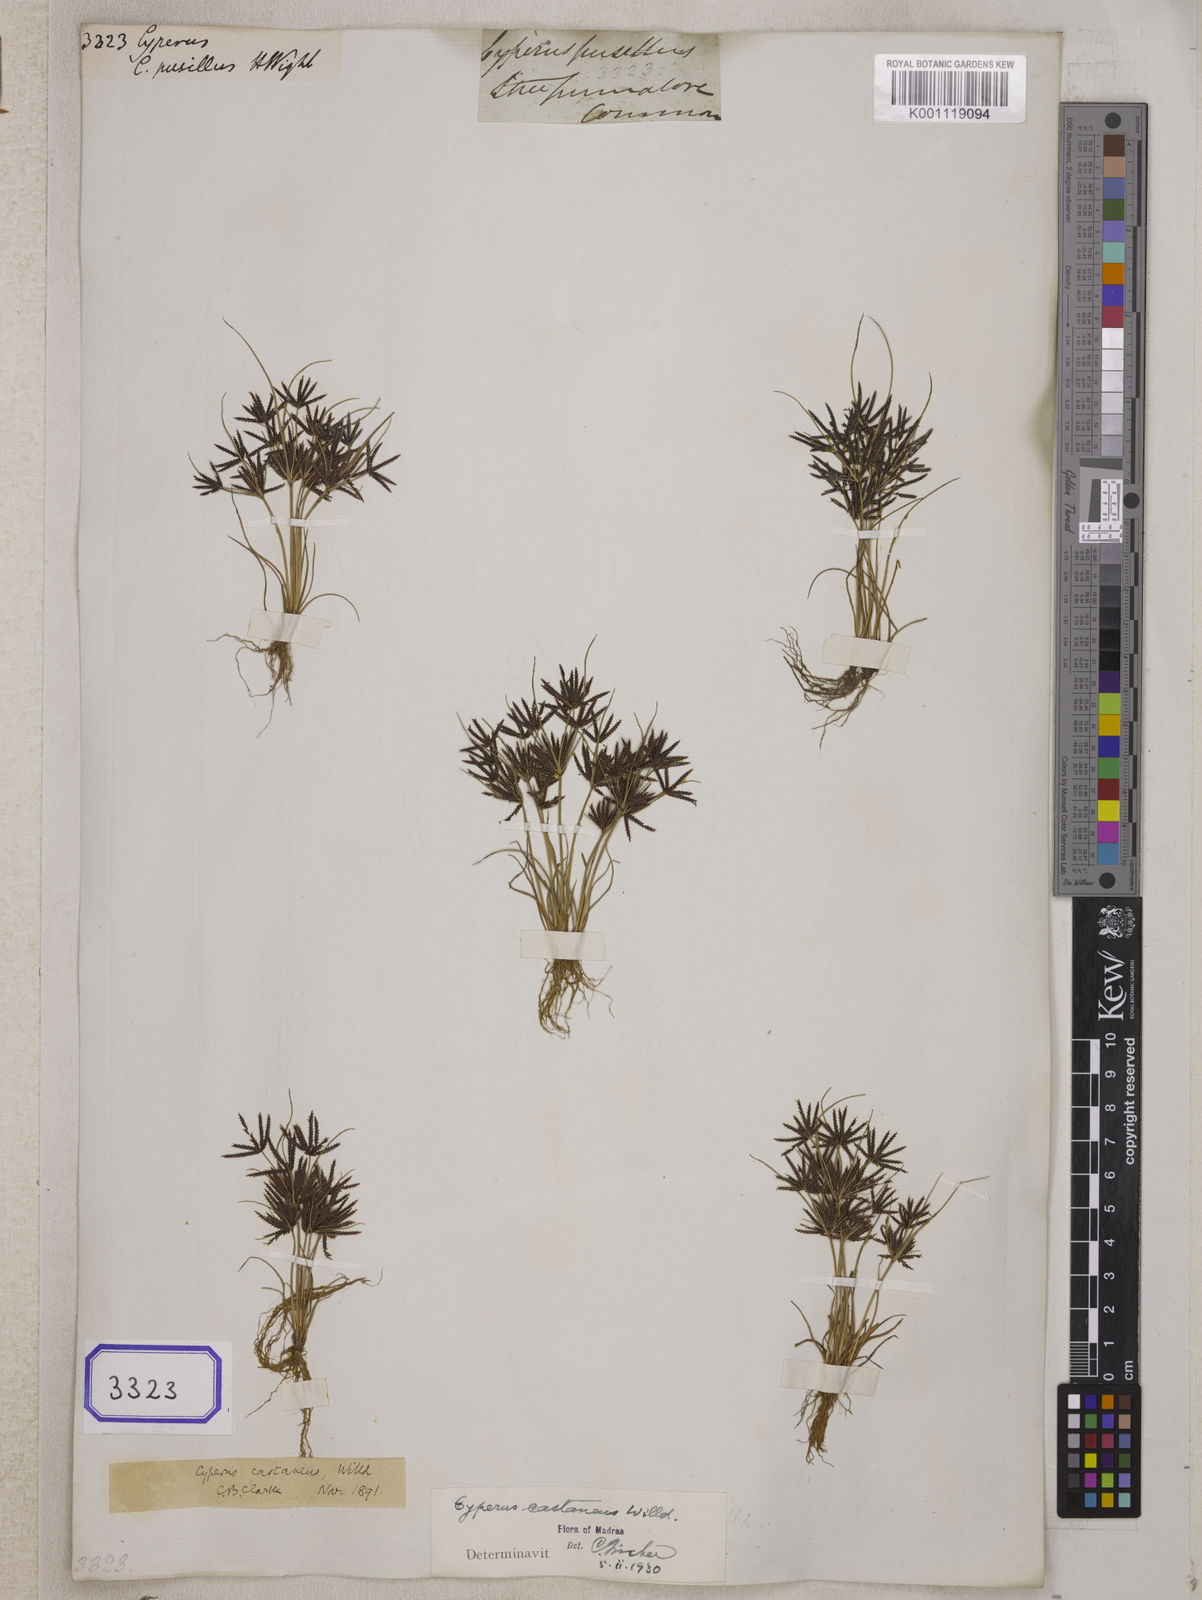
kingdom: Plantae
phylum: Tracheophyta
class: Liliopsida
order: Poales
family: Cyperaceae
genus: Cyperus
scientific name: Cyperus
